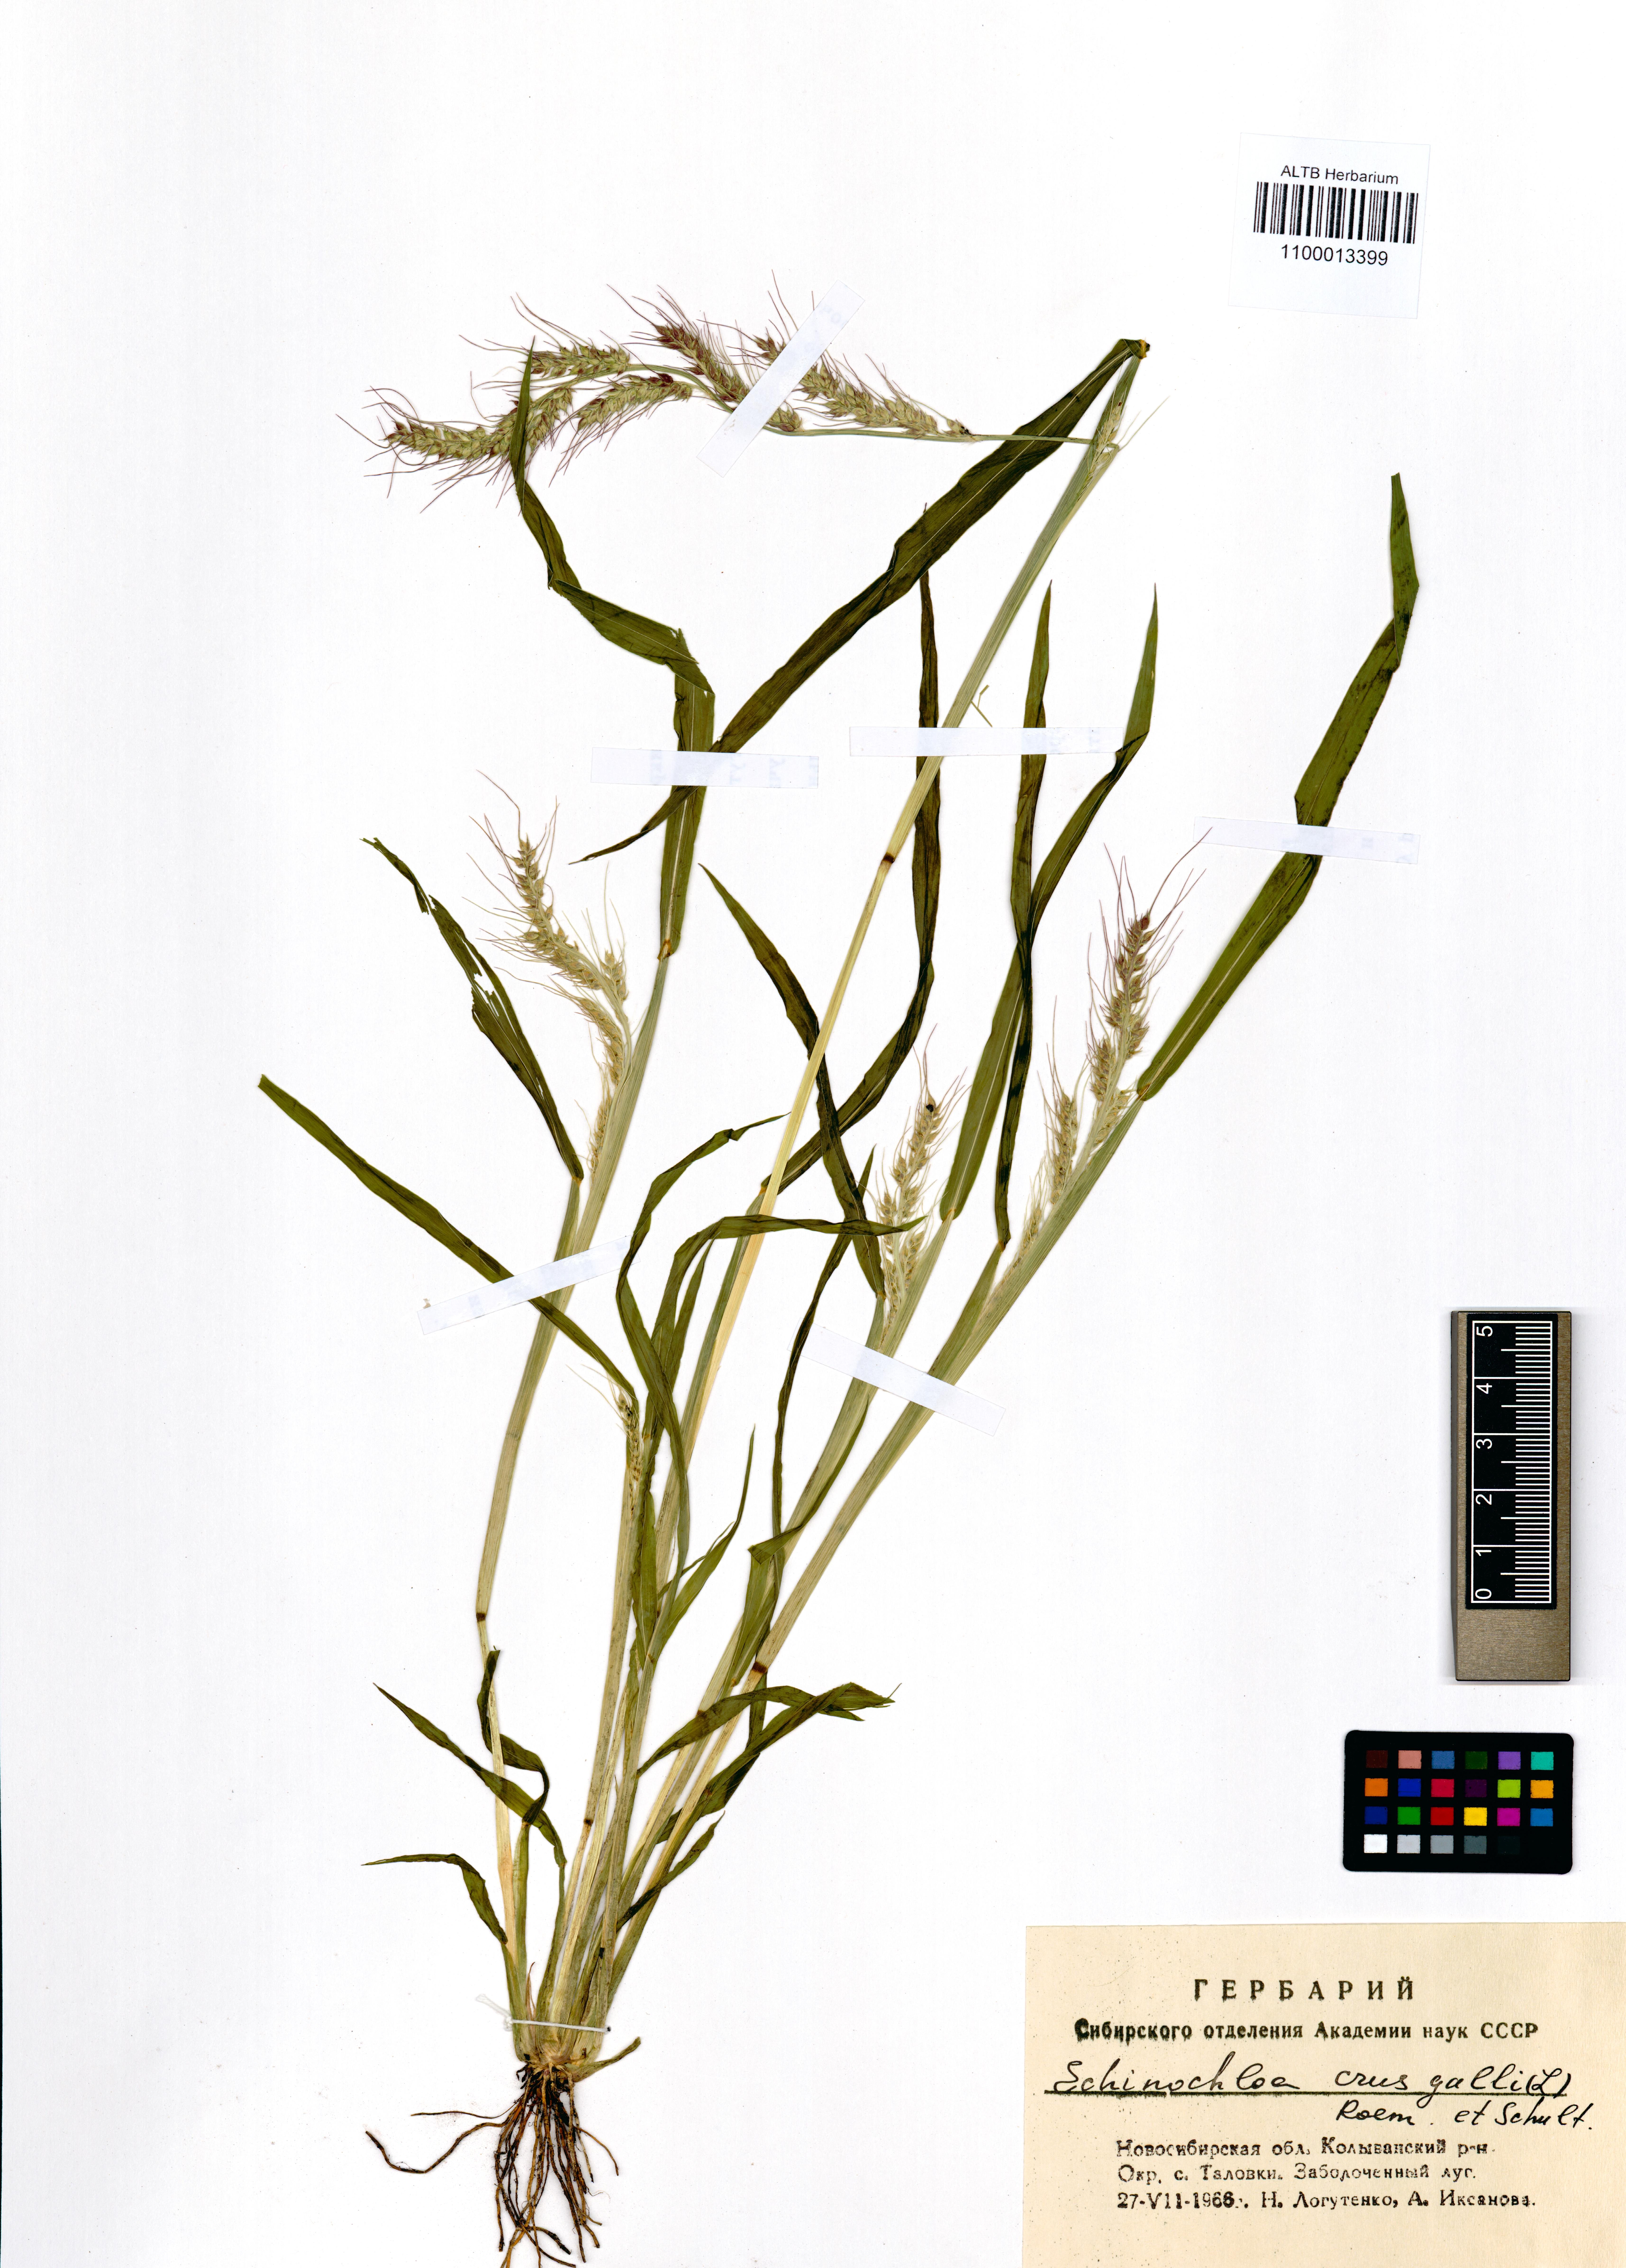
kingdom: Plantae
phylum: Tracheophyta
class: Liliopsida
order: Poales
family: Poaceae
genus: Echinochloa
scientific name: Echinochloa crus-galli
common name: Cockspur
